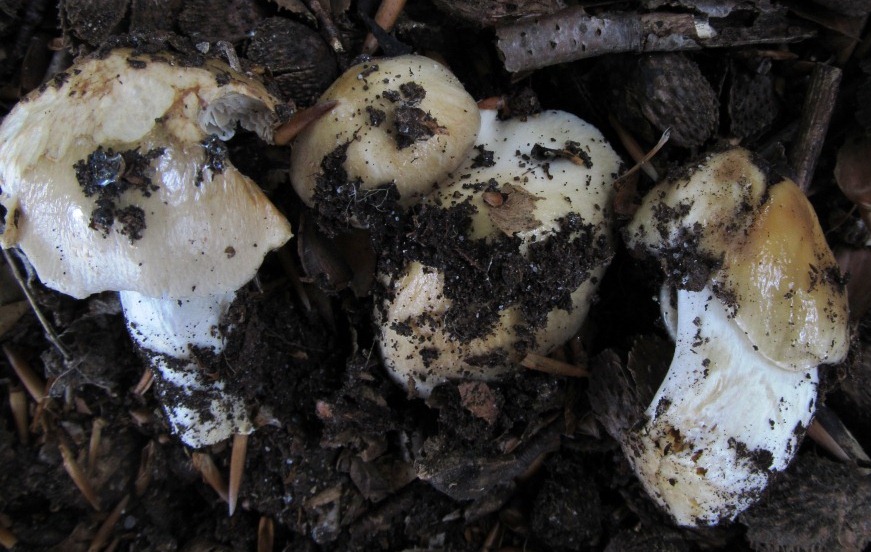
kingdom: Fungi
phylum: Basidiomycota
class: Agaricomycetes
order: Agaricales
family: Cortinariaceae
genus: Cortinarius
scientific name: Cortinarius elatior
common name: høj slørhat
